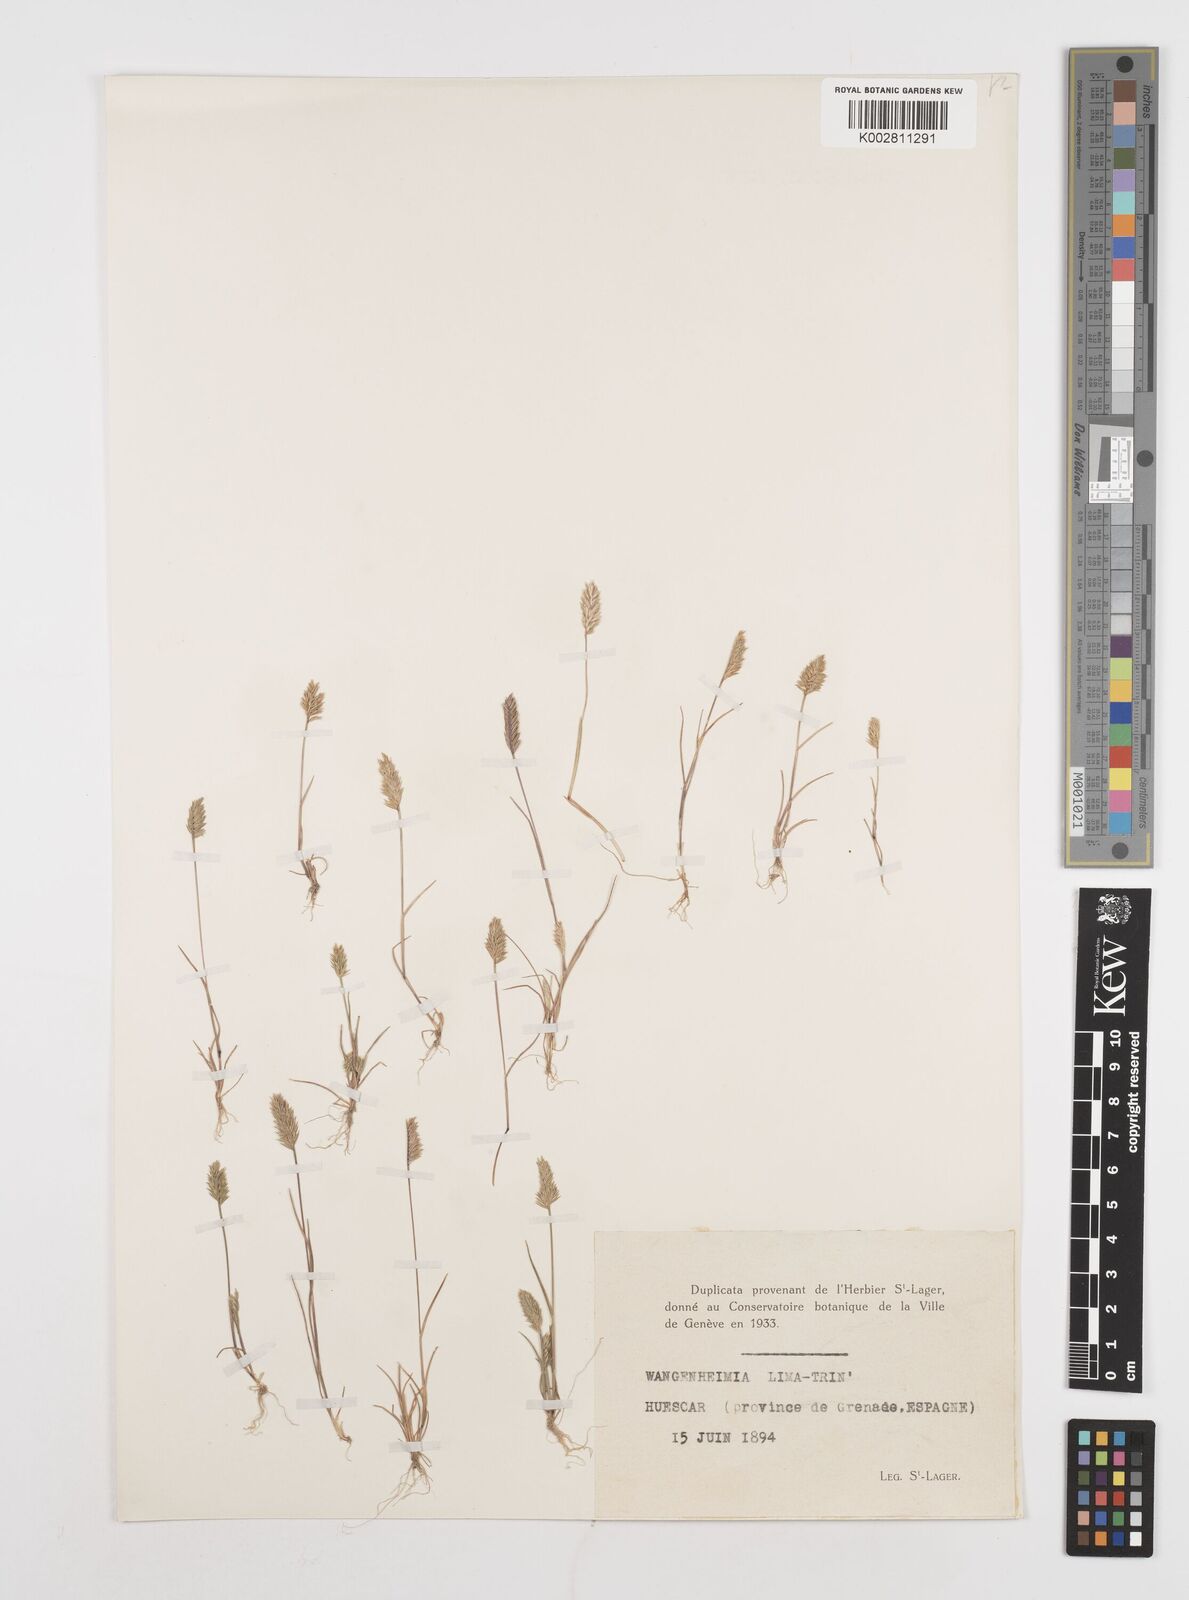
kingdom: Plantae
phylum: Tracheophyta
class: Liliopsida
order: Poales
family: Poaceae
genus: Wangenheimia
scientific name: Wangenheimia lima
